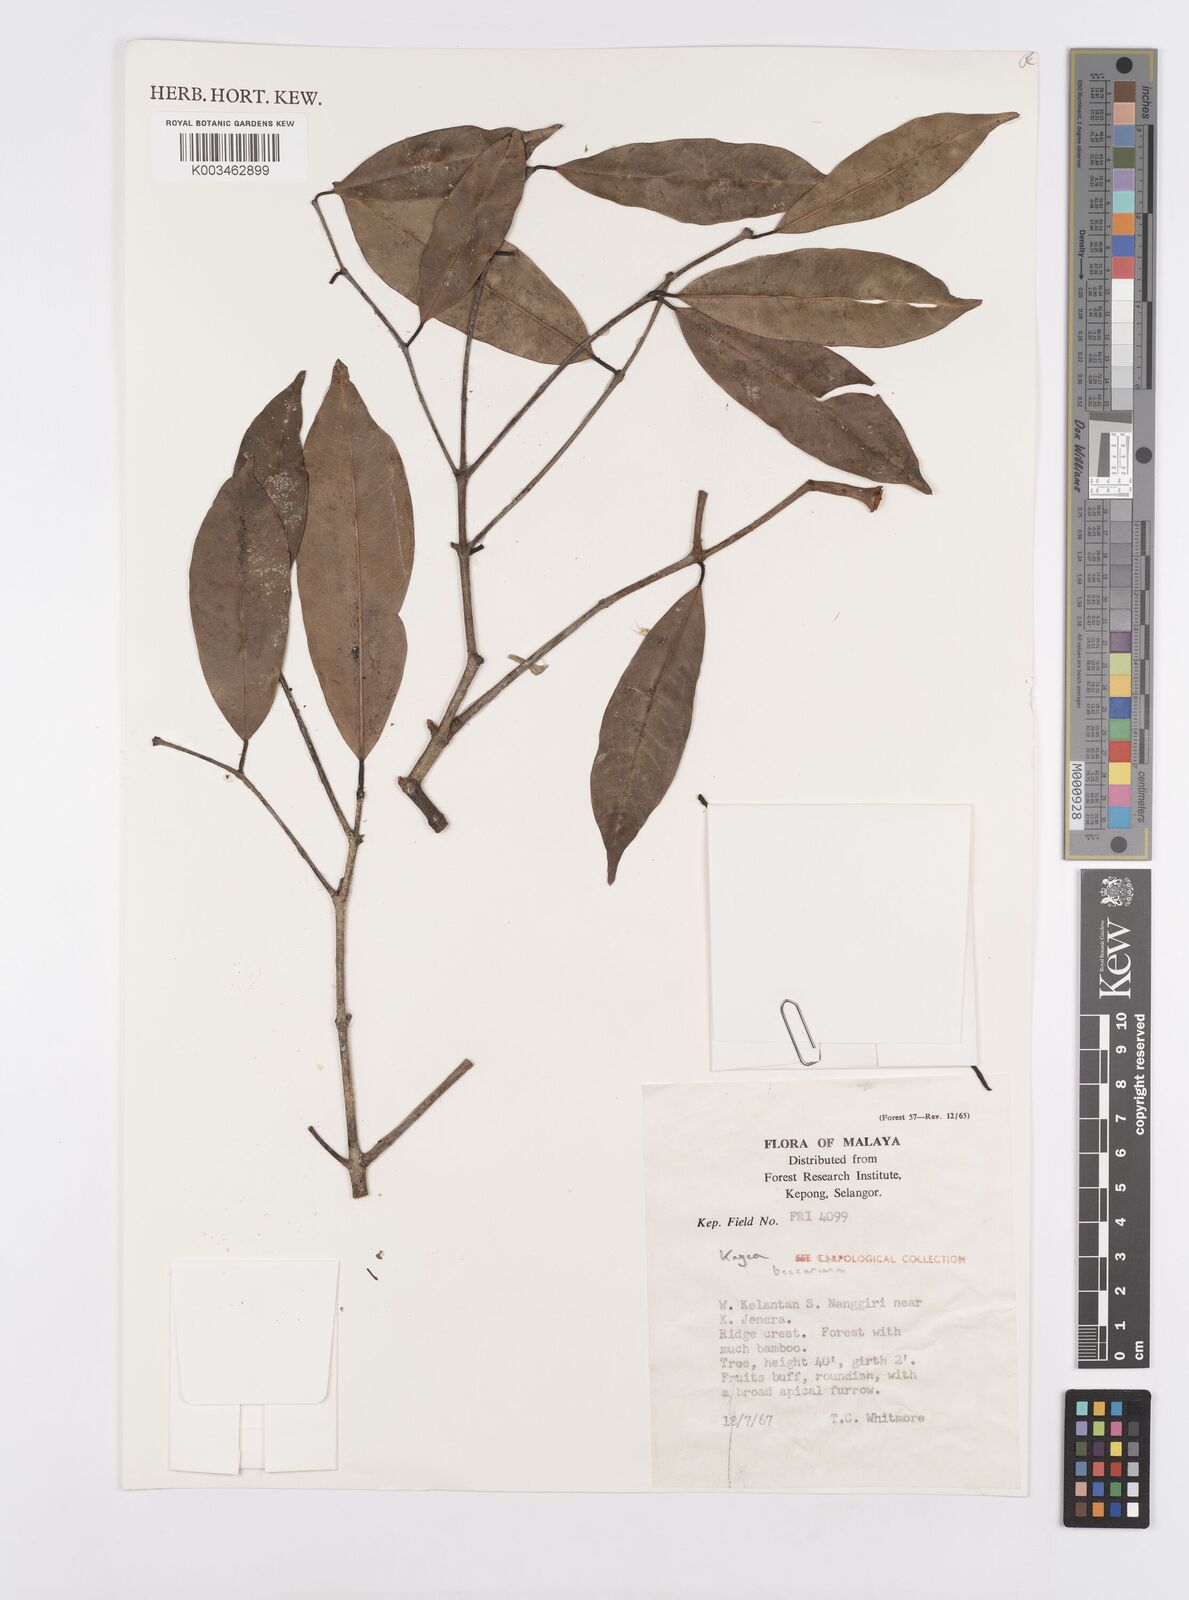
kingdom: Plantae
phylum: Tracheophyta
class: Magnoliopsida
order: Malpighiales
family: Calophyllaceae
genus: Kayea
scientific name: Kayea beccariana
